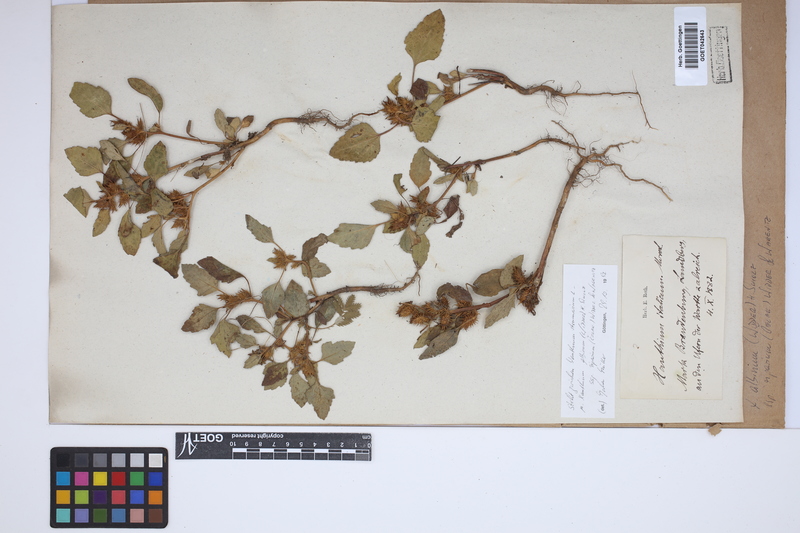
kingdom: Plantae
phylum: Tracheophyta
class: Magnoliopsida
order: Asterales
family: Asteraceae
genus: Xanthium
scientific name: Xanthium orientale
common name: Californian burr
